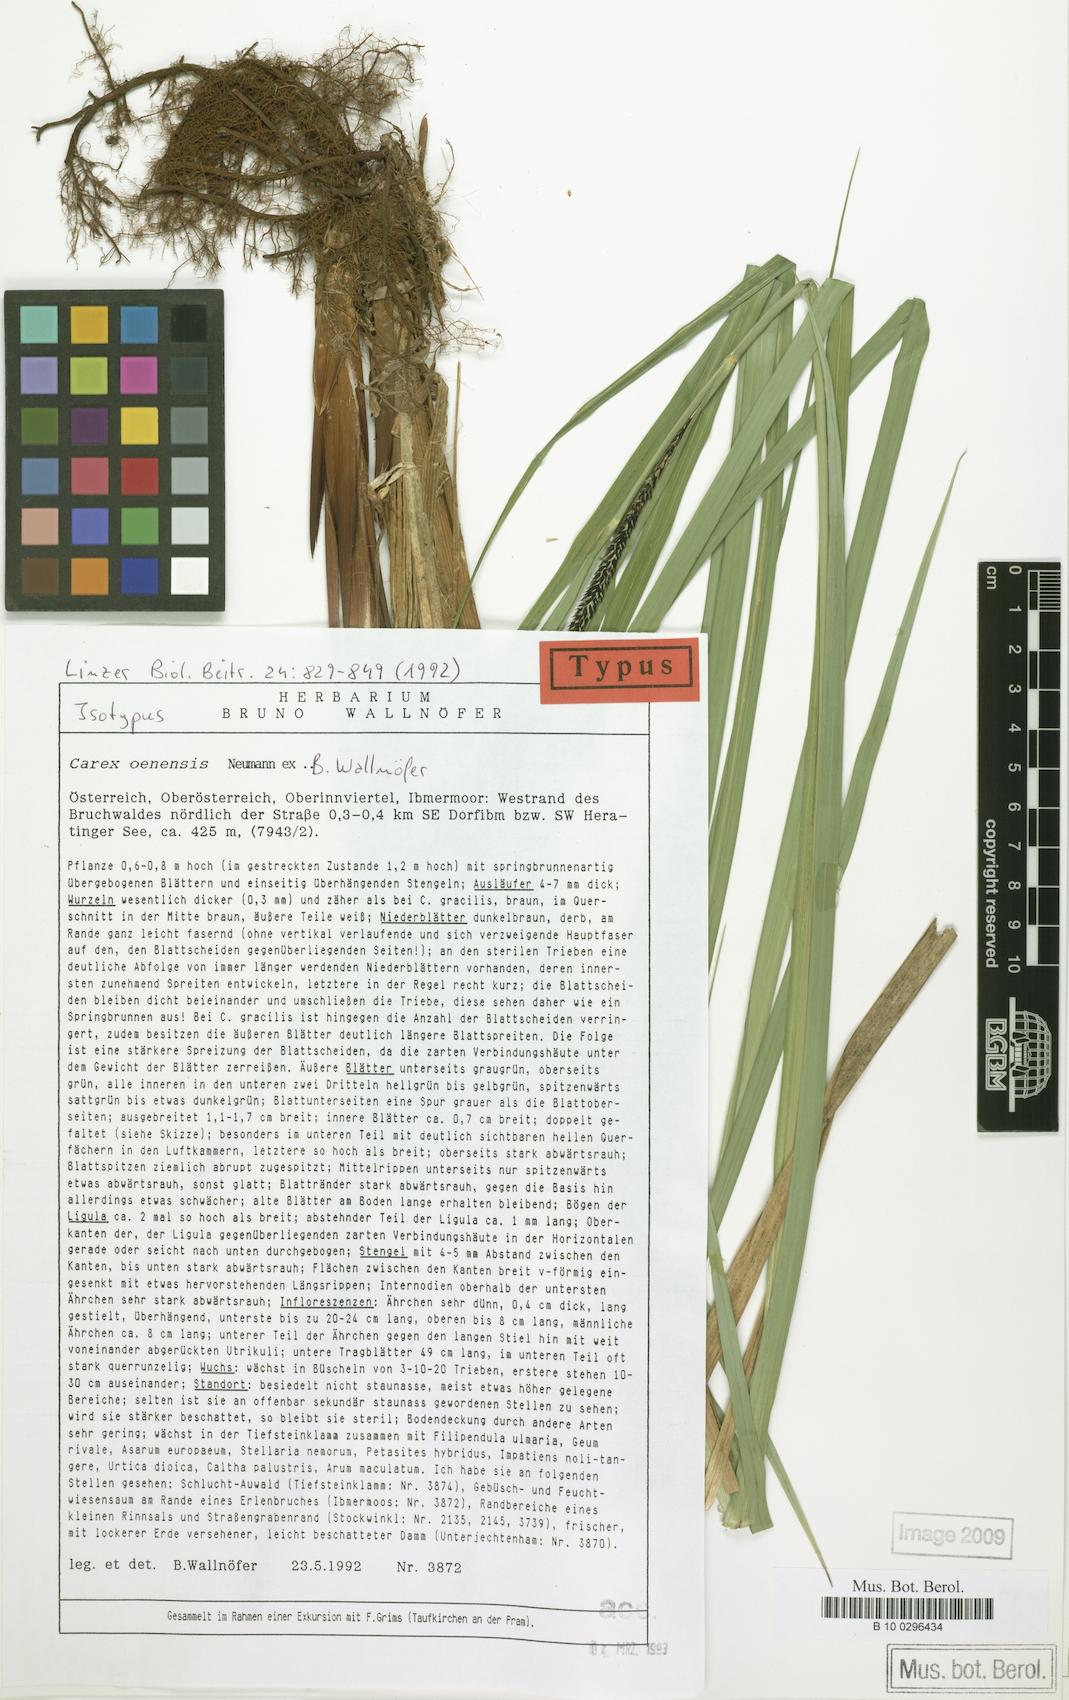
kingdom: Plantae
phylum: Tracheophyta
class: Liliopsida
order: Poales
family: Cyperaceae
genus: Carex
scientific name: Carex oenensis
